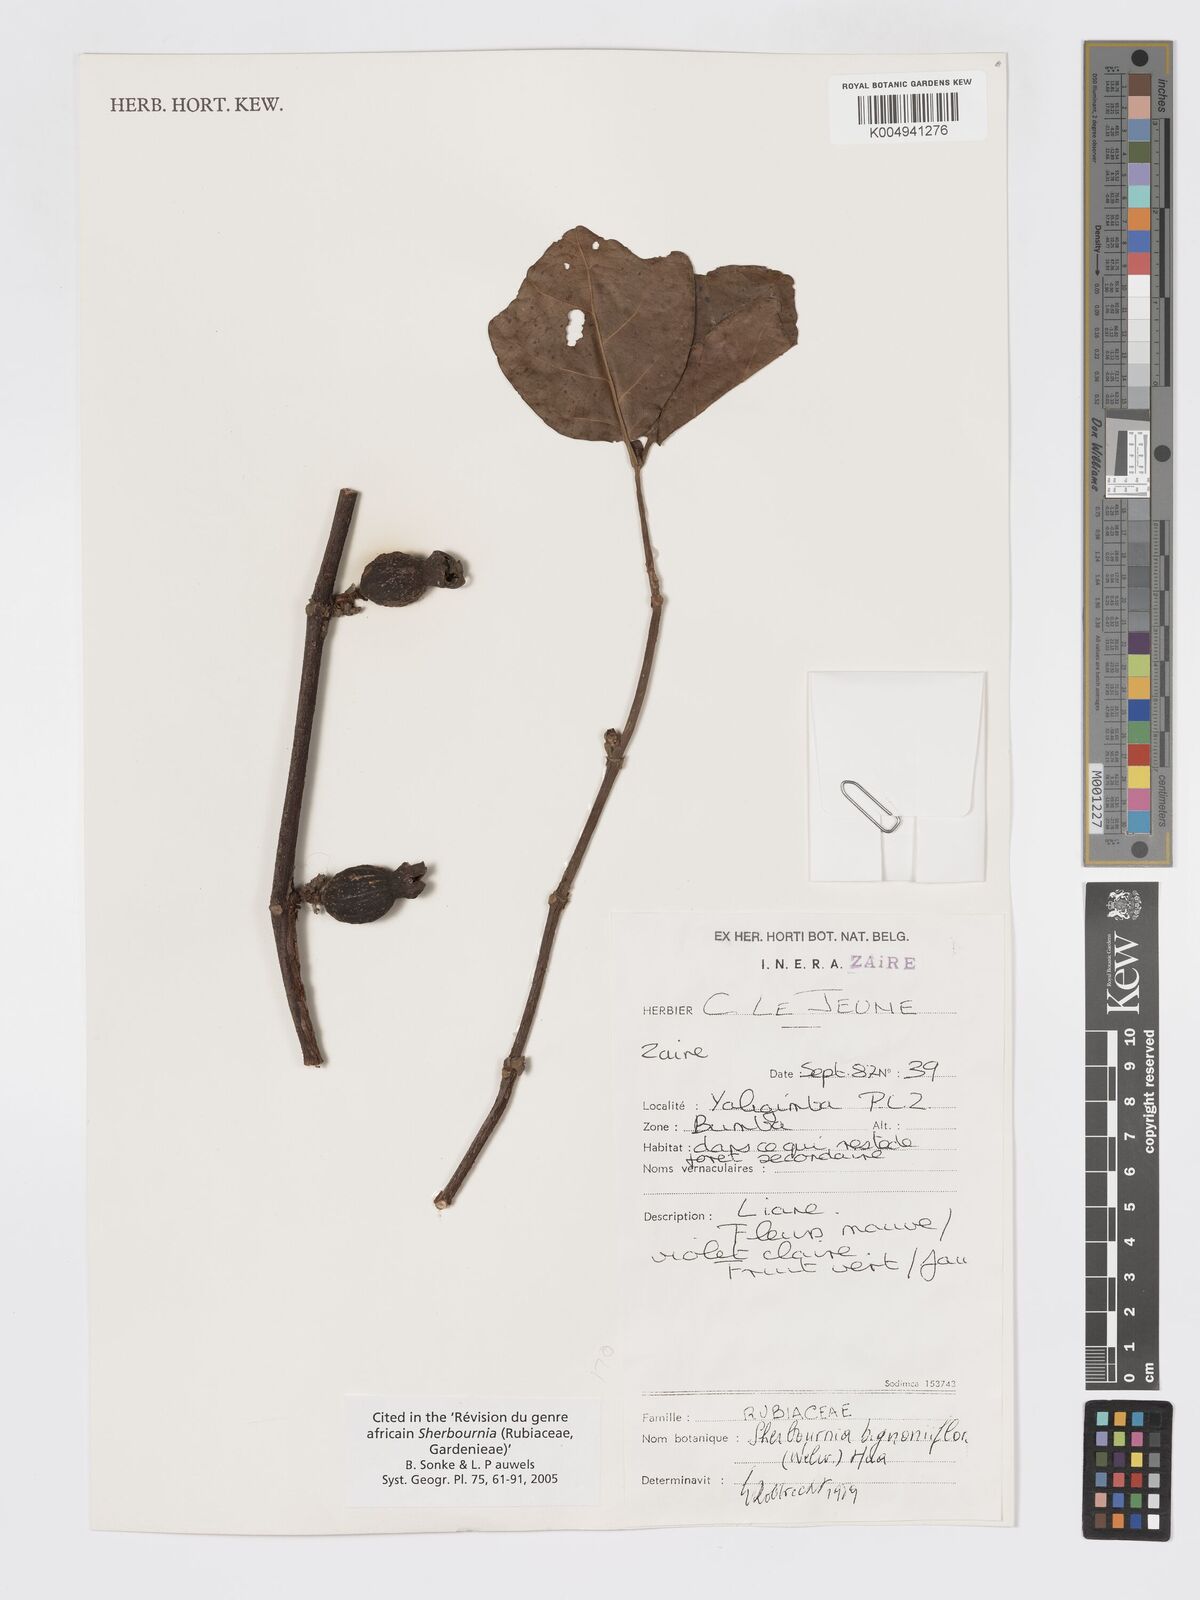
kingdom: Plantae
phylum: Tracheophyta
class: Magnoliopsida
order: Gentianales
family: Rubiaceae
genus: Sherbournia
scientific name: Sherbournia bignoniiflora
